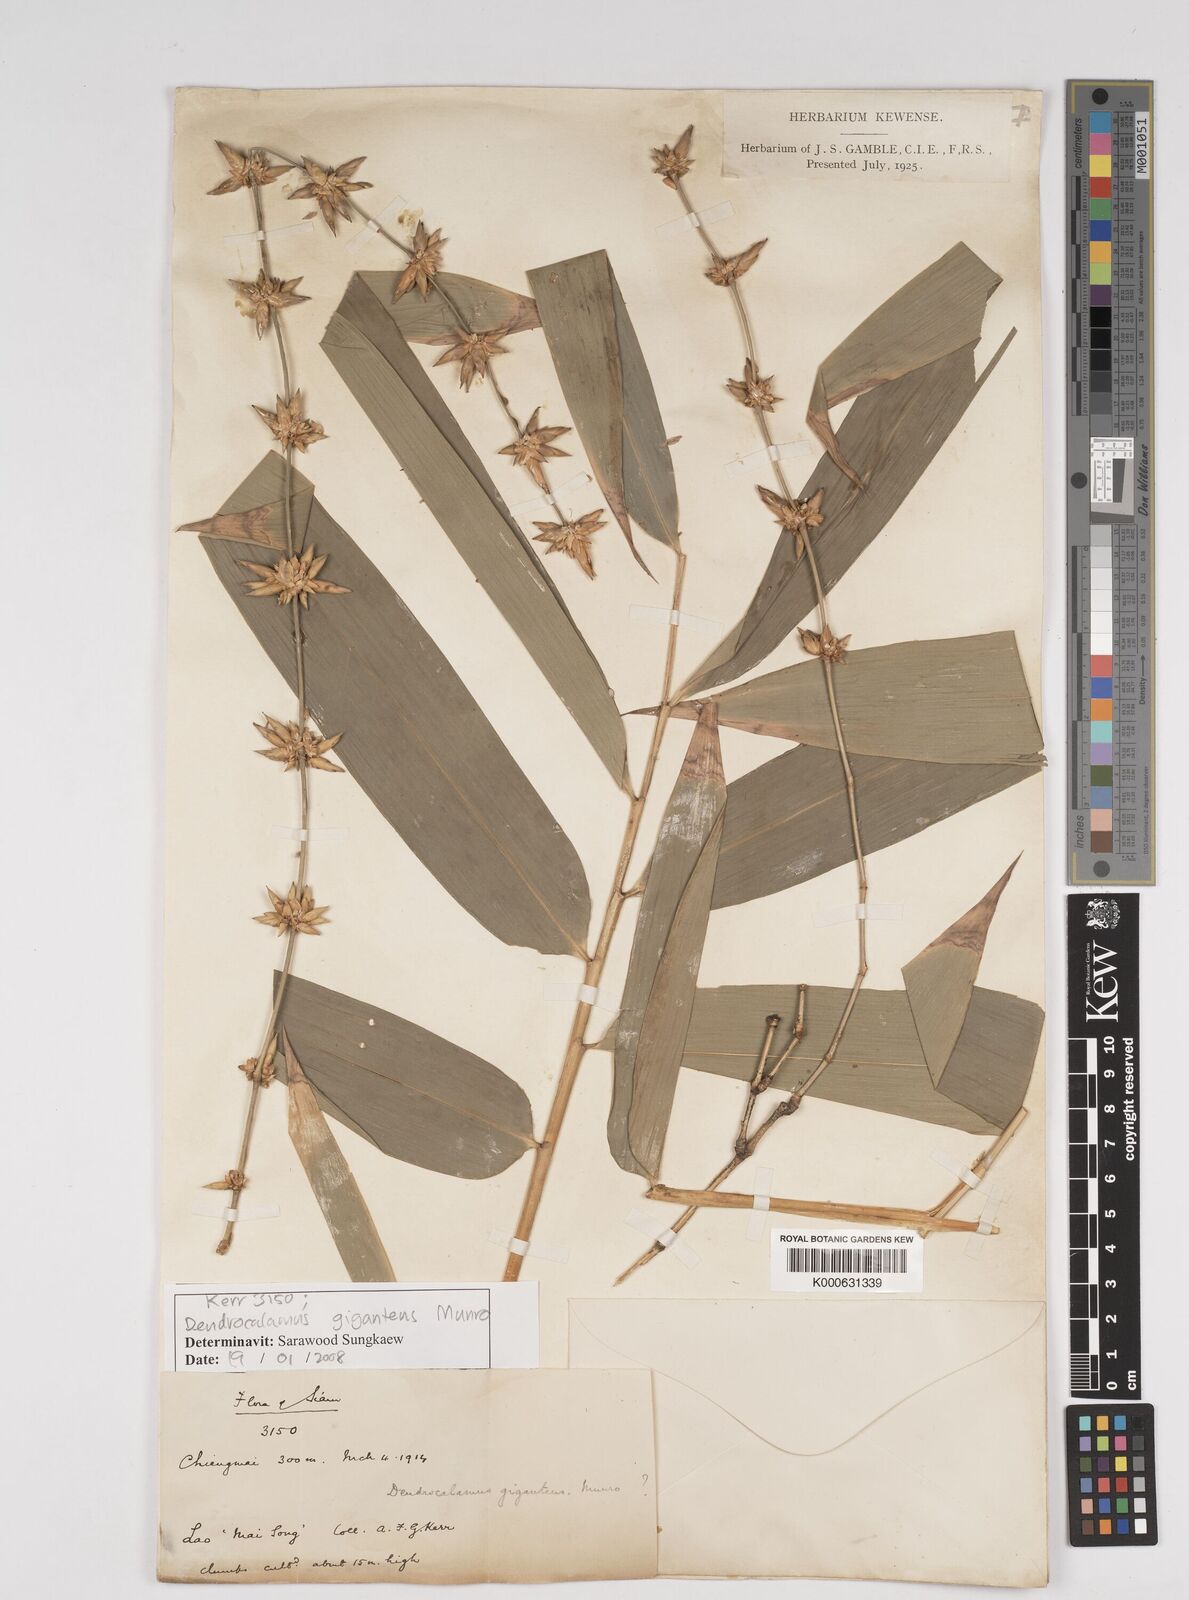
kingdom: Plantae
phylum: Tracheophyta
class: Liliopsida
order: Poales
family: Poaceae
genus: Dendrocalamus
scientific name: Dendrocalamus giganteus
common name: Giant bamboo
